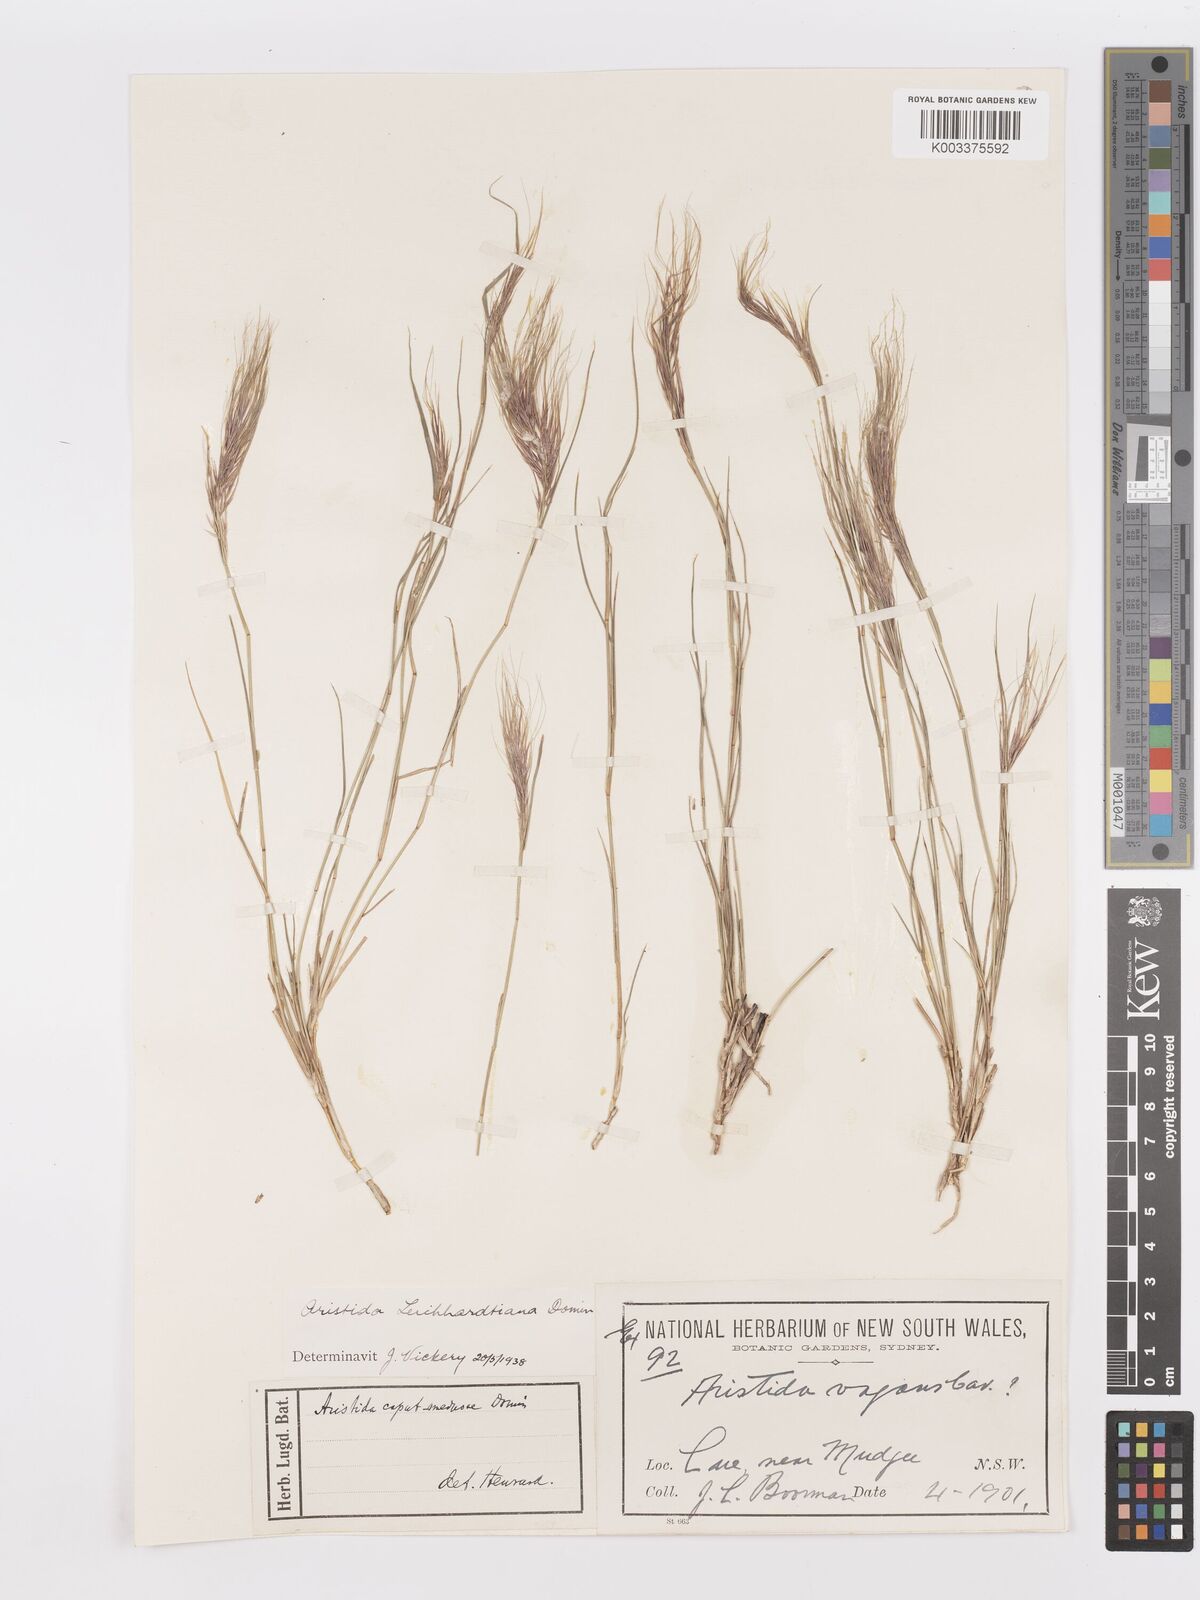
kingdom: Plantae
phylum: Tracheophyta
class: Liliopsida
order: Poales
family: Poaceae
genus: Aristida
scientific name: Aristida leichhardtiana
